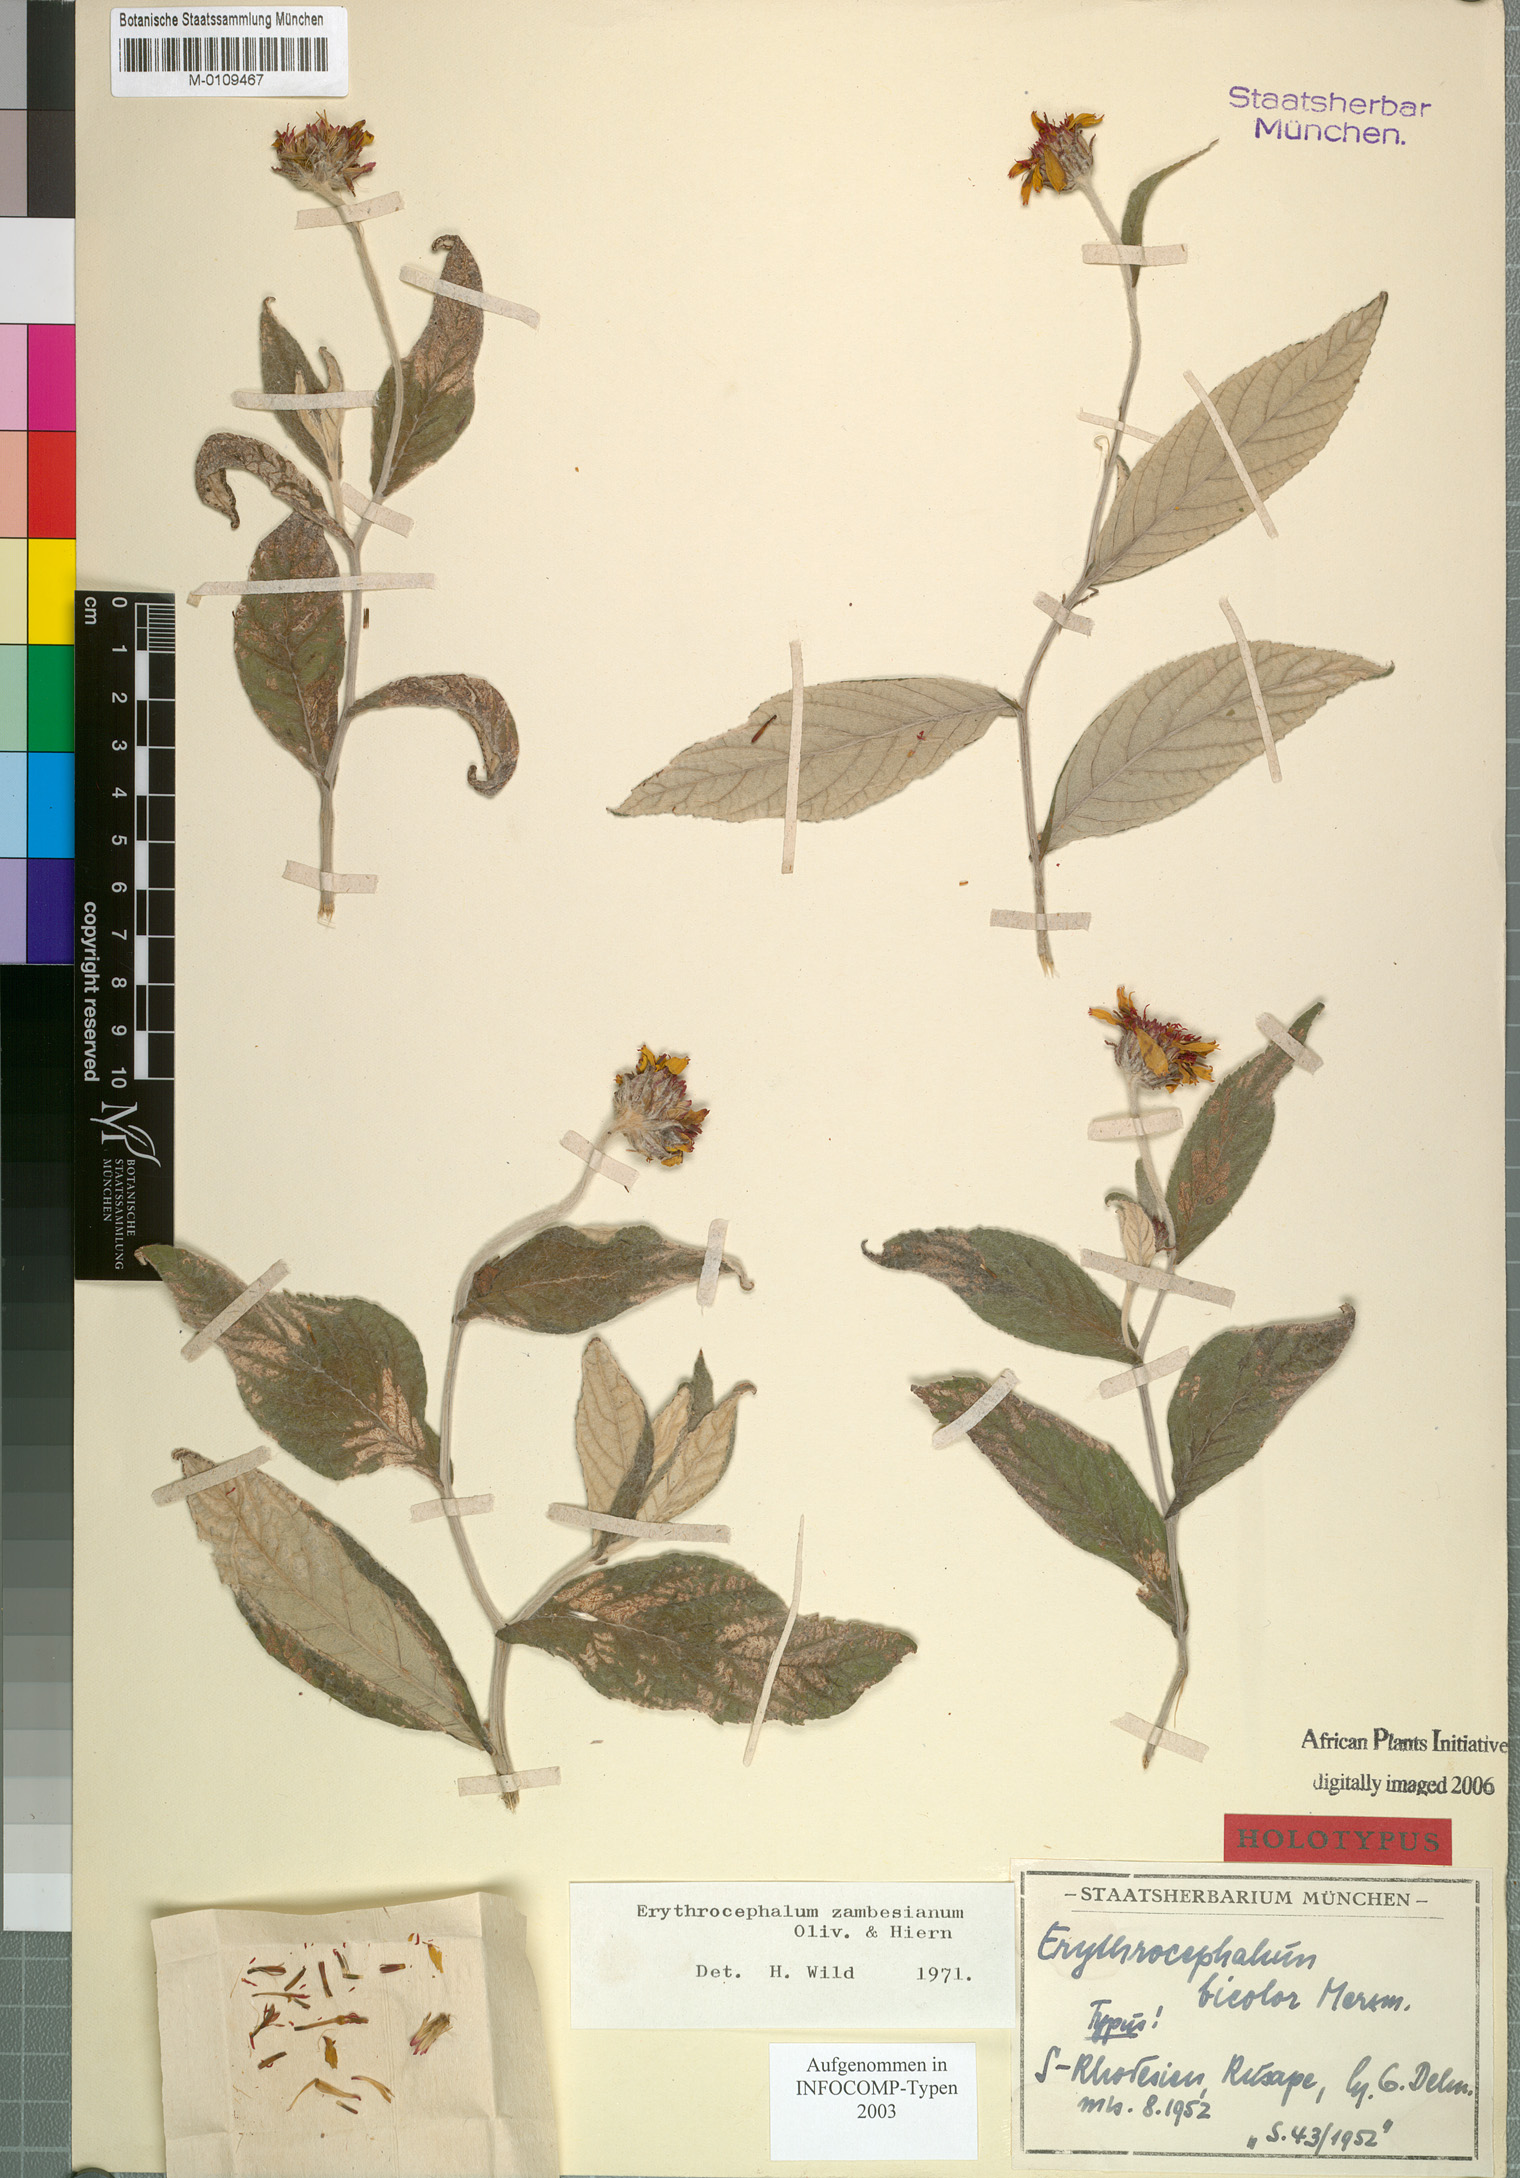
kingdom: Plantae
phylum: Tracheophyta
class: Magnoliopsida
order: Asterales
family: Asteraceae
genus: Erythrocephalum
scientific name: Erythrocephalum longifolium
